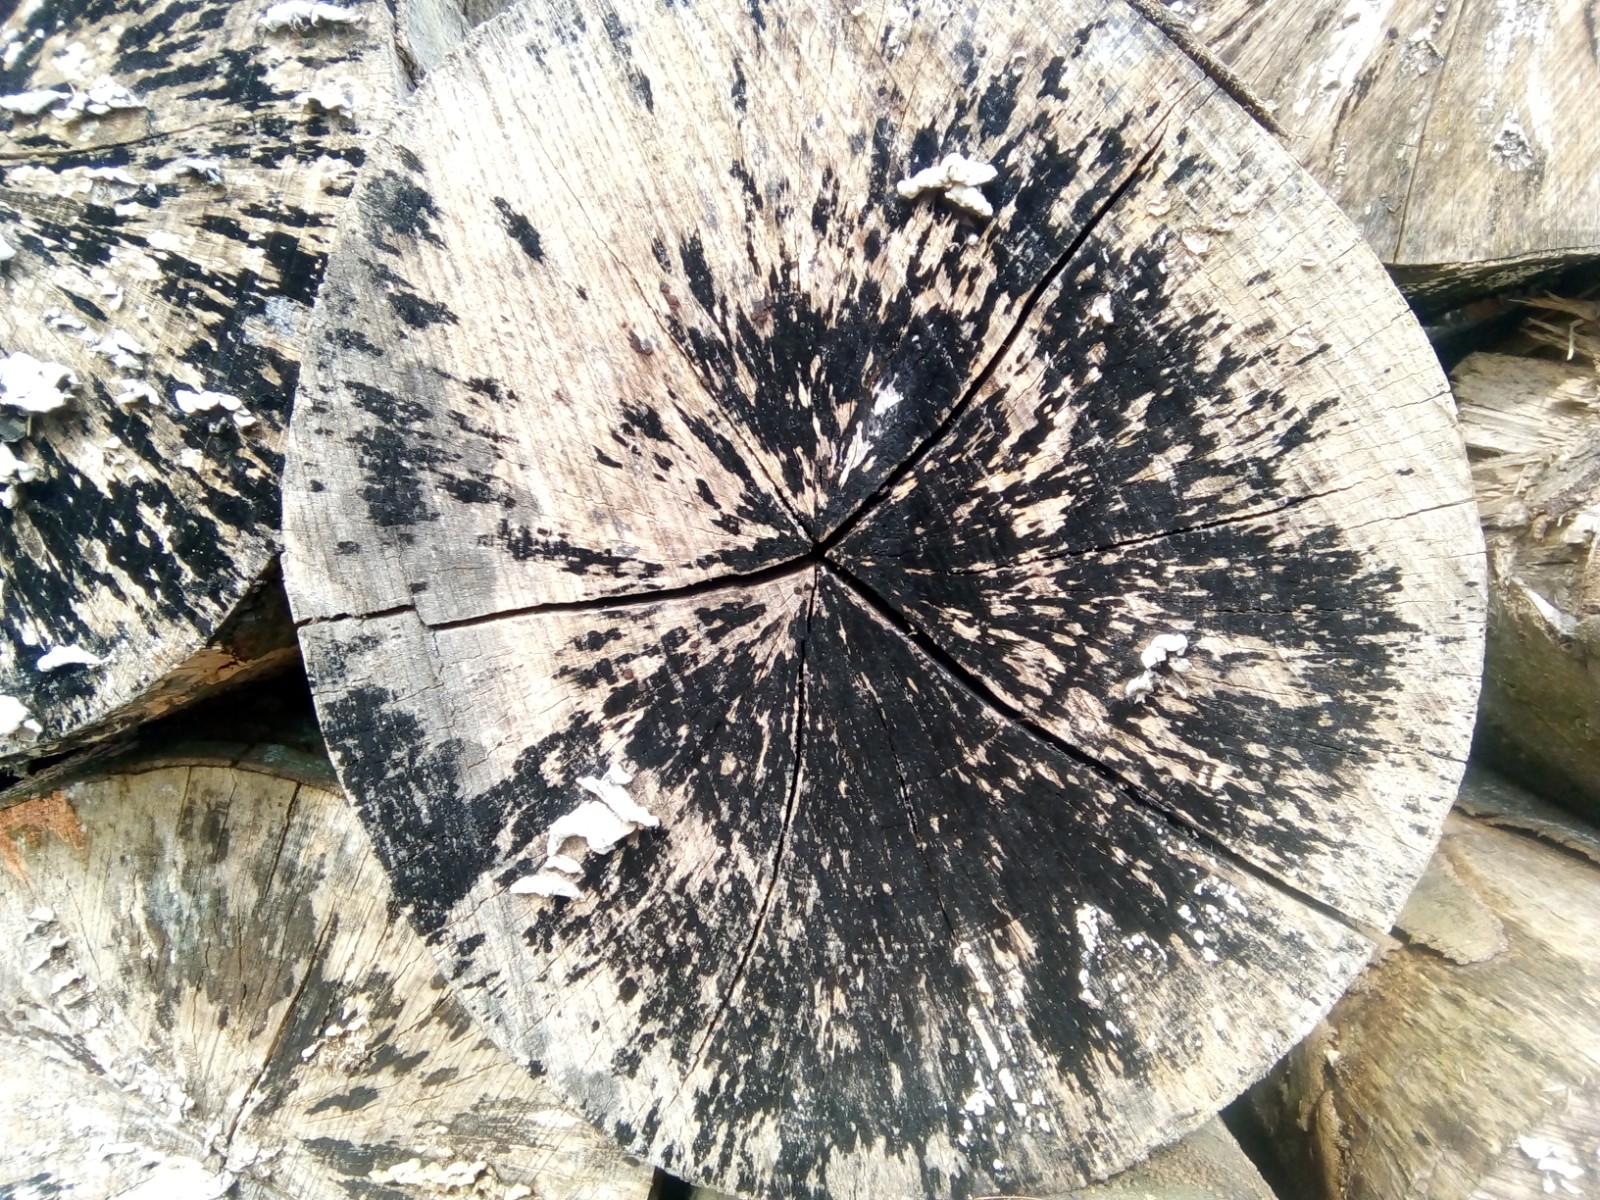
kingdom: Fungi
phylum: Ascomycota
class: Leotiomycetes
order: Helotiales
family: Helotiaceae
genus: Bispora
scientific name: Bispora pallescens
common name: måtte-snitskive
